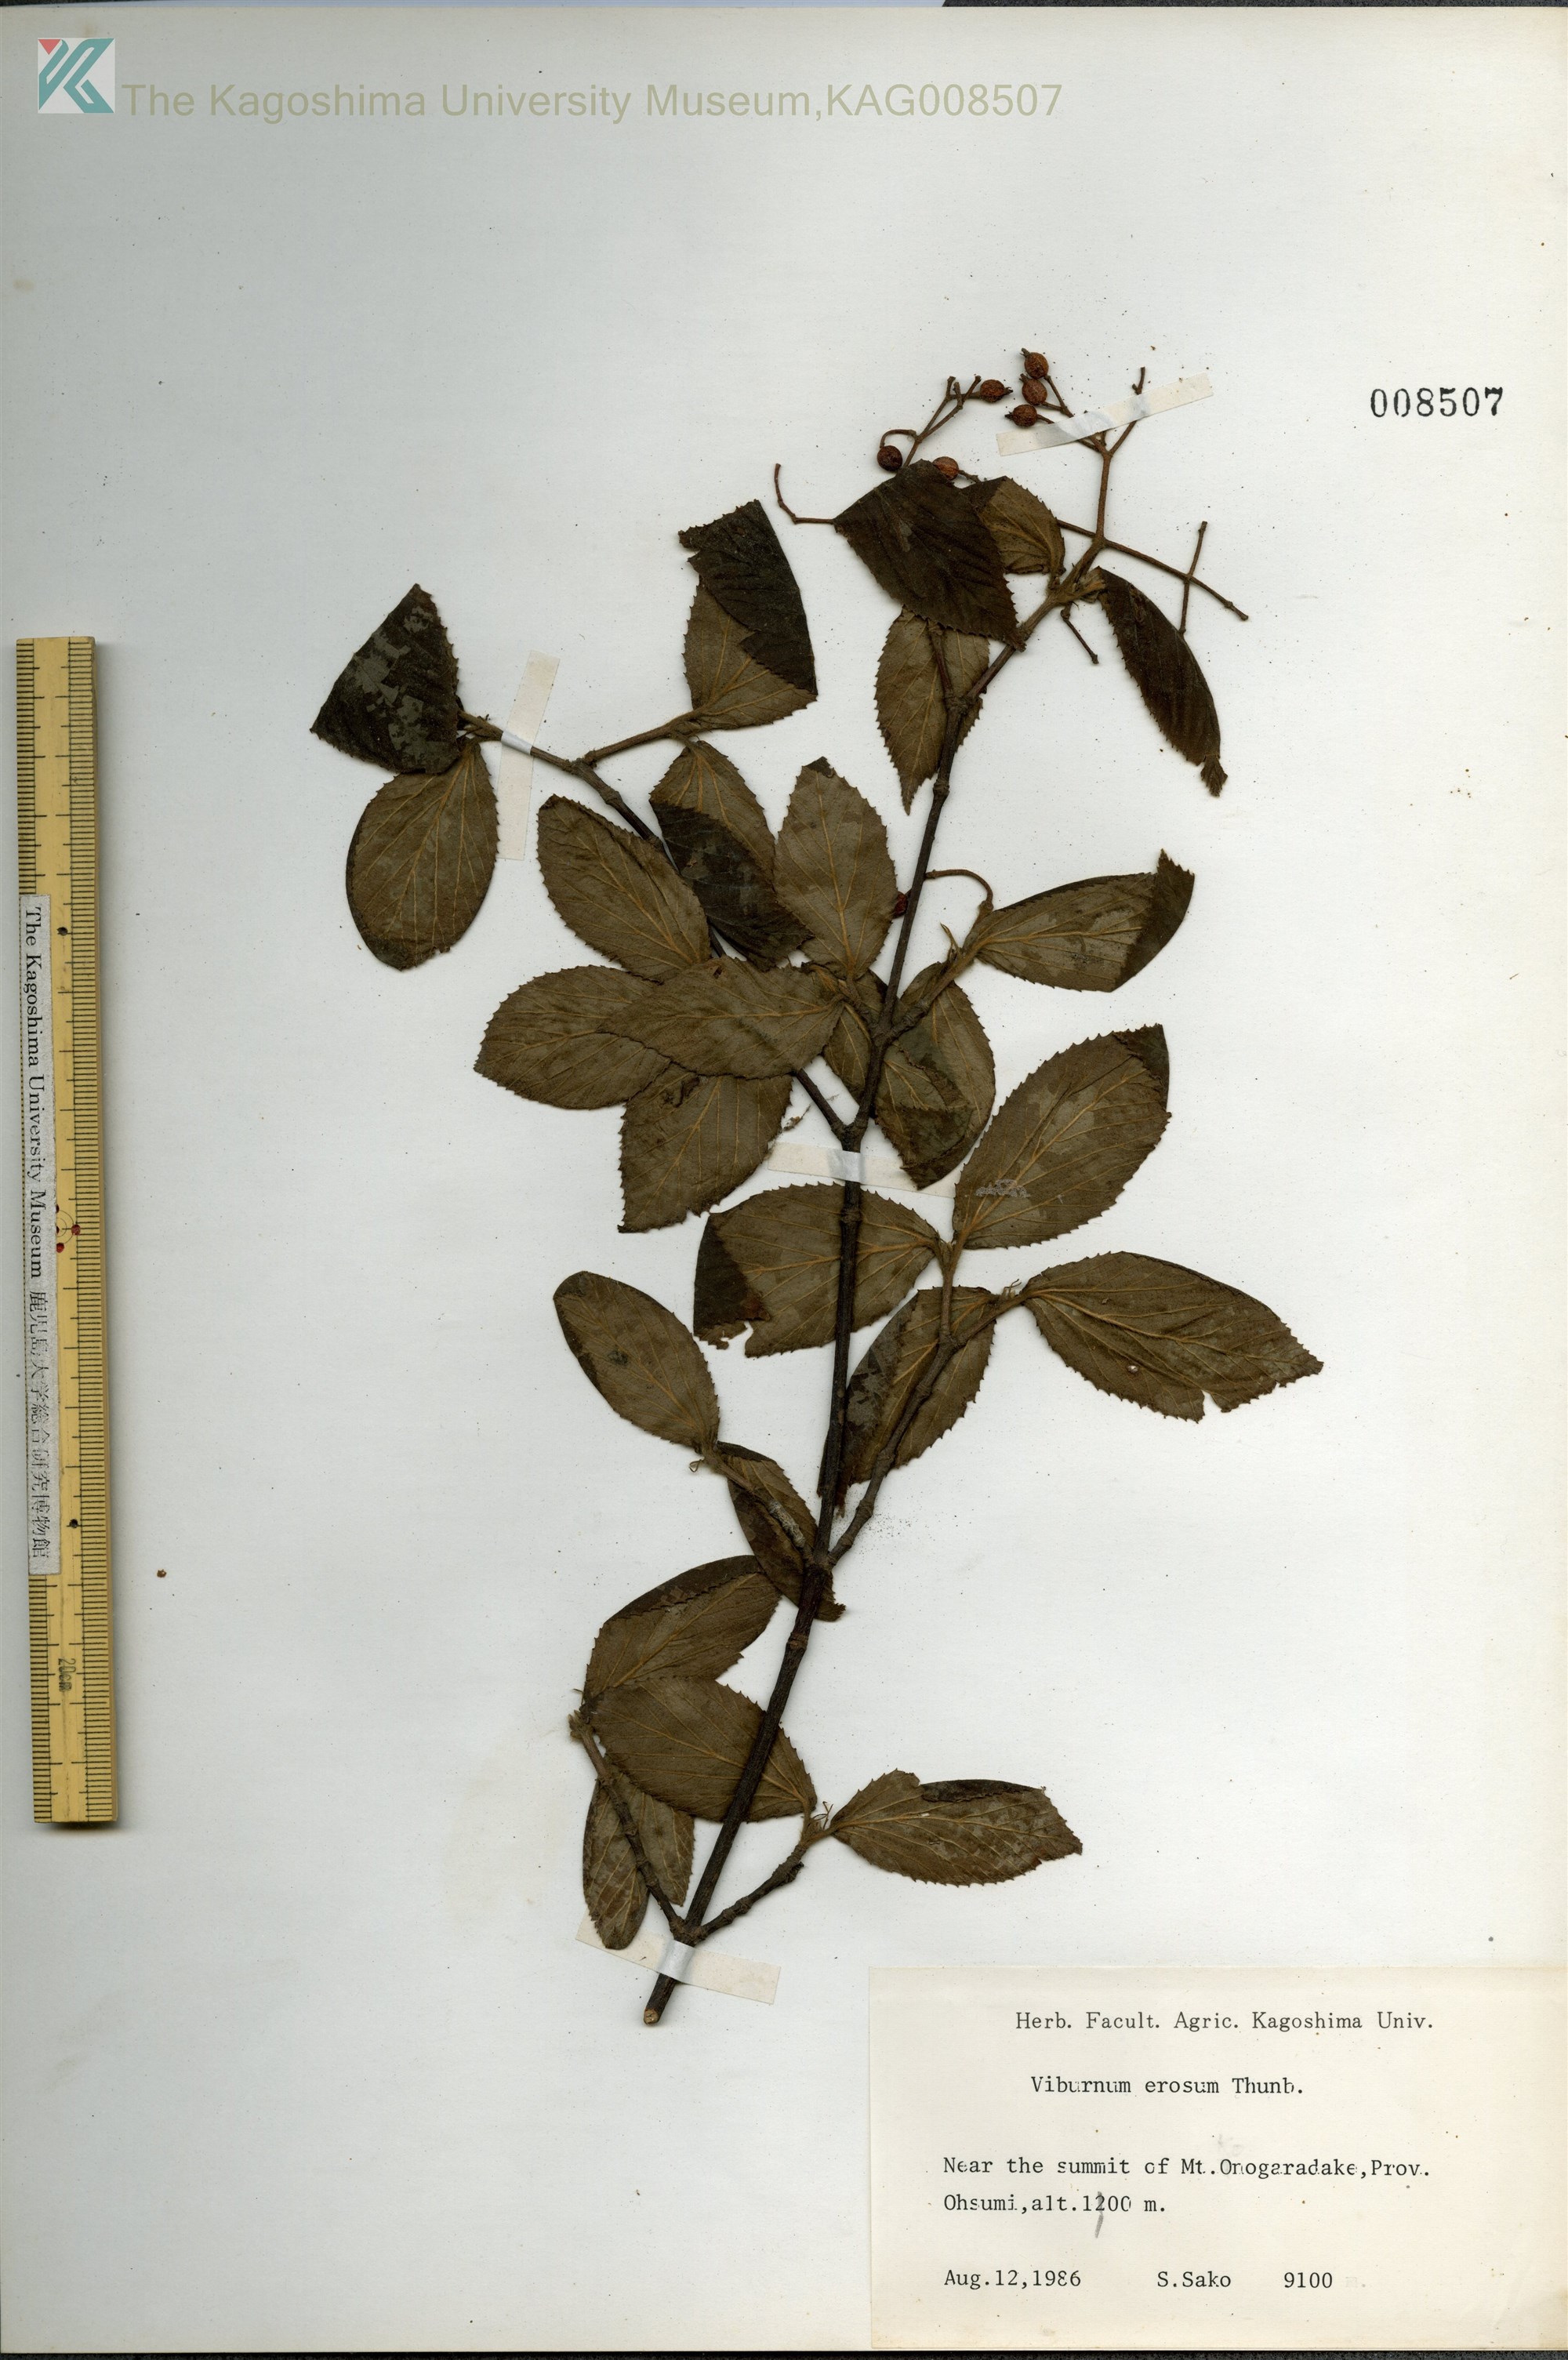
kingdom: Plantae
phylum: Tracheophyta
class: Magnoliopsida
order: Dipsacales
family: Viburnaceae
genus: Viburnum
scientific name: Viburnum erosum
